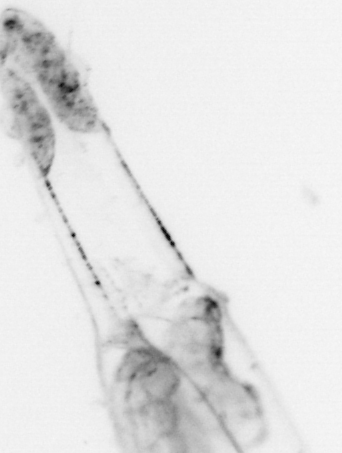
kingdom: Animalia
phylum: Chaetognatha
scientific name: Chaetognatha
